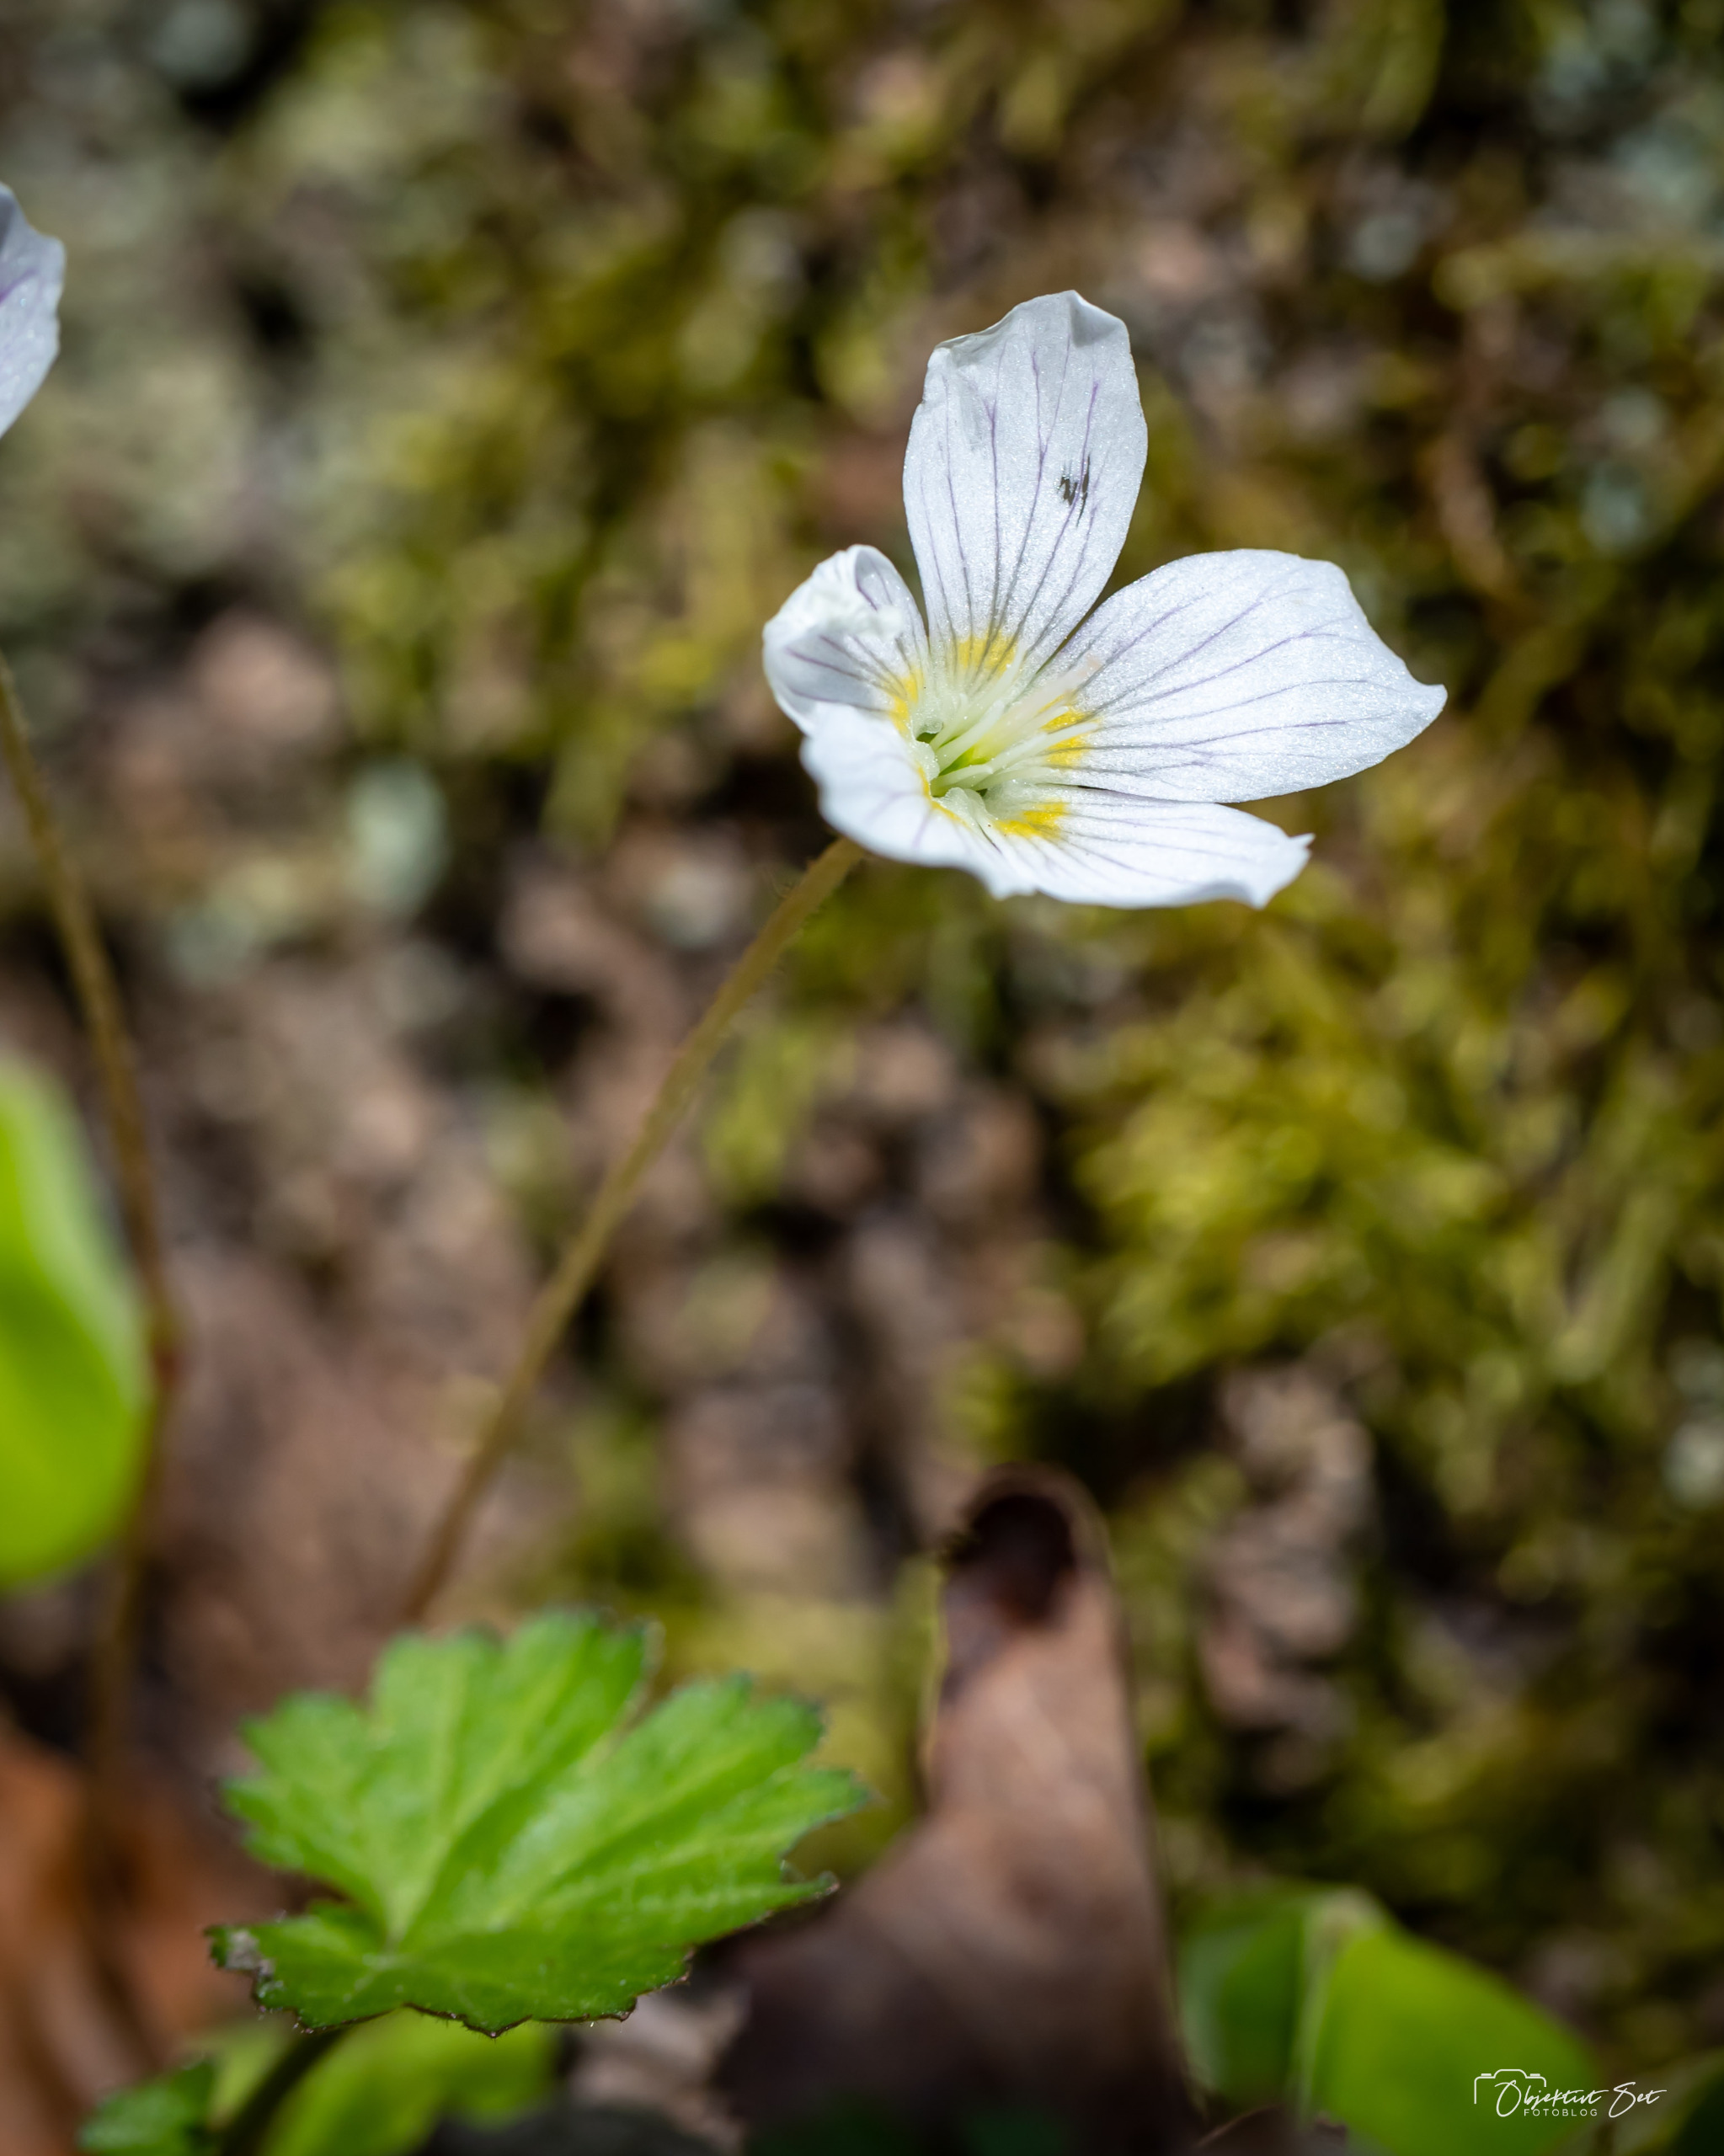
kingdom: Plantae
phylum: Tracheophyta
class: Magnoliopsida
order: Oxalidales
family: Oxalidaceae
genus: Oxalis
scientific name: Oxalis acetosella
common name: Skovsyre
